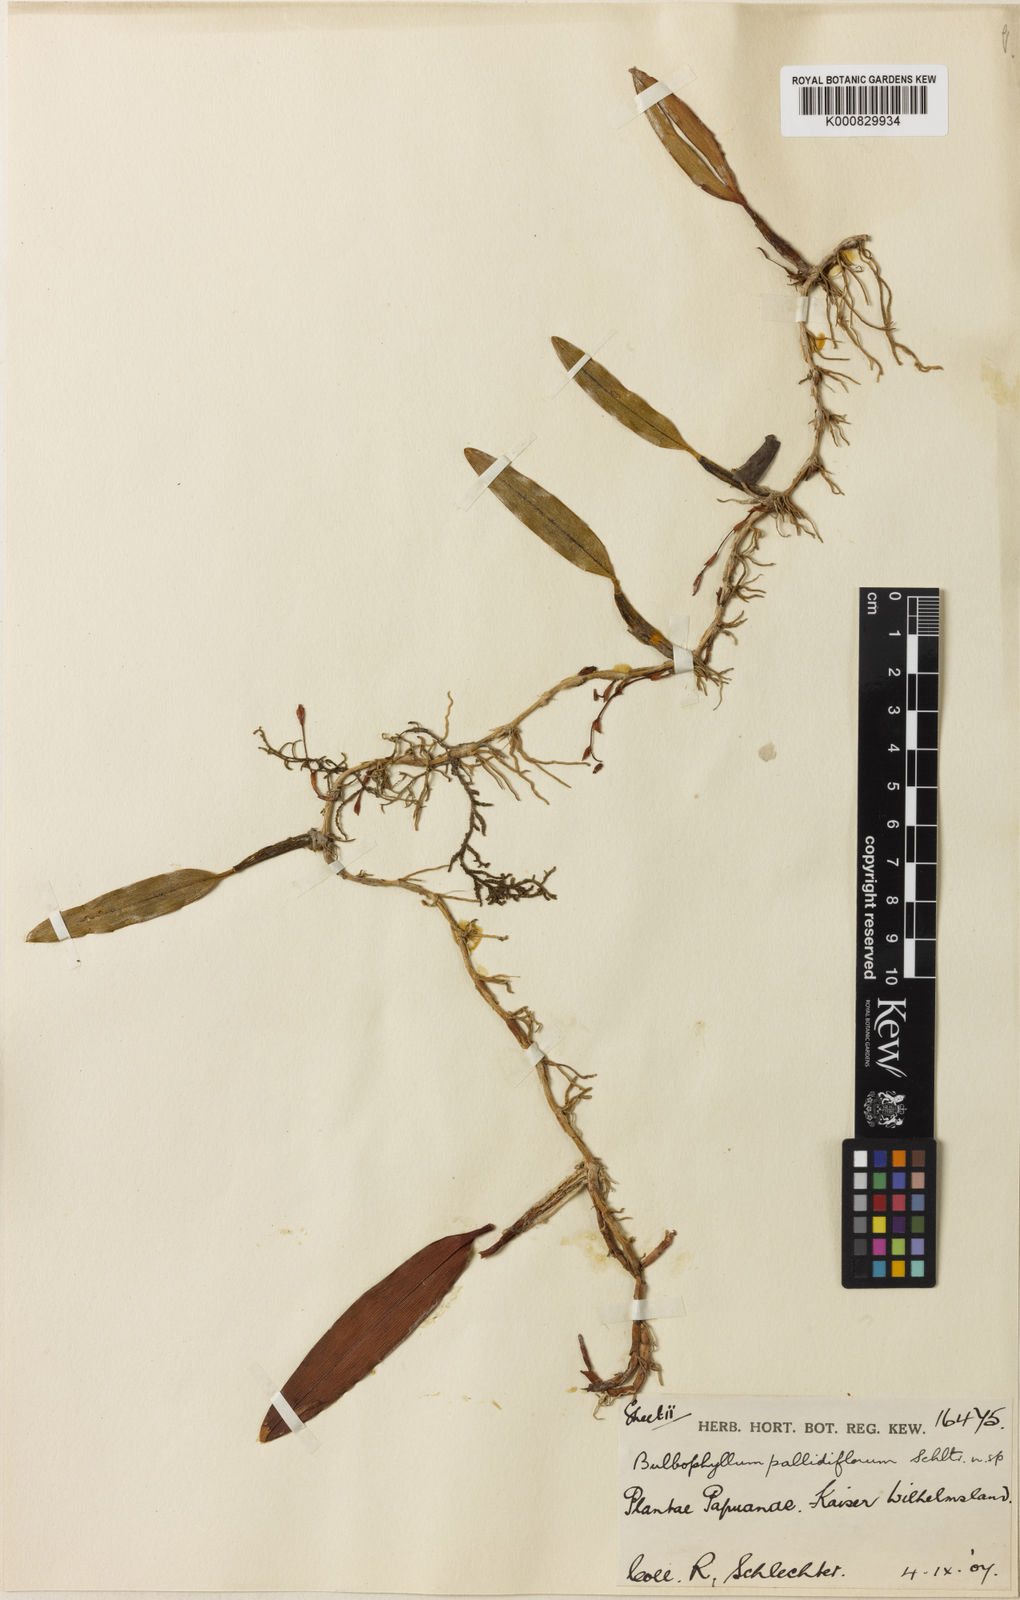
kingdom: Plantae
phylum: Tracheophyta
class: Liliopsida
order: Asparagales
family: Orchidaceae
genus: Bulbophyllum
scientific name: Bulbophyllum cylindrobulbum
